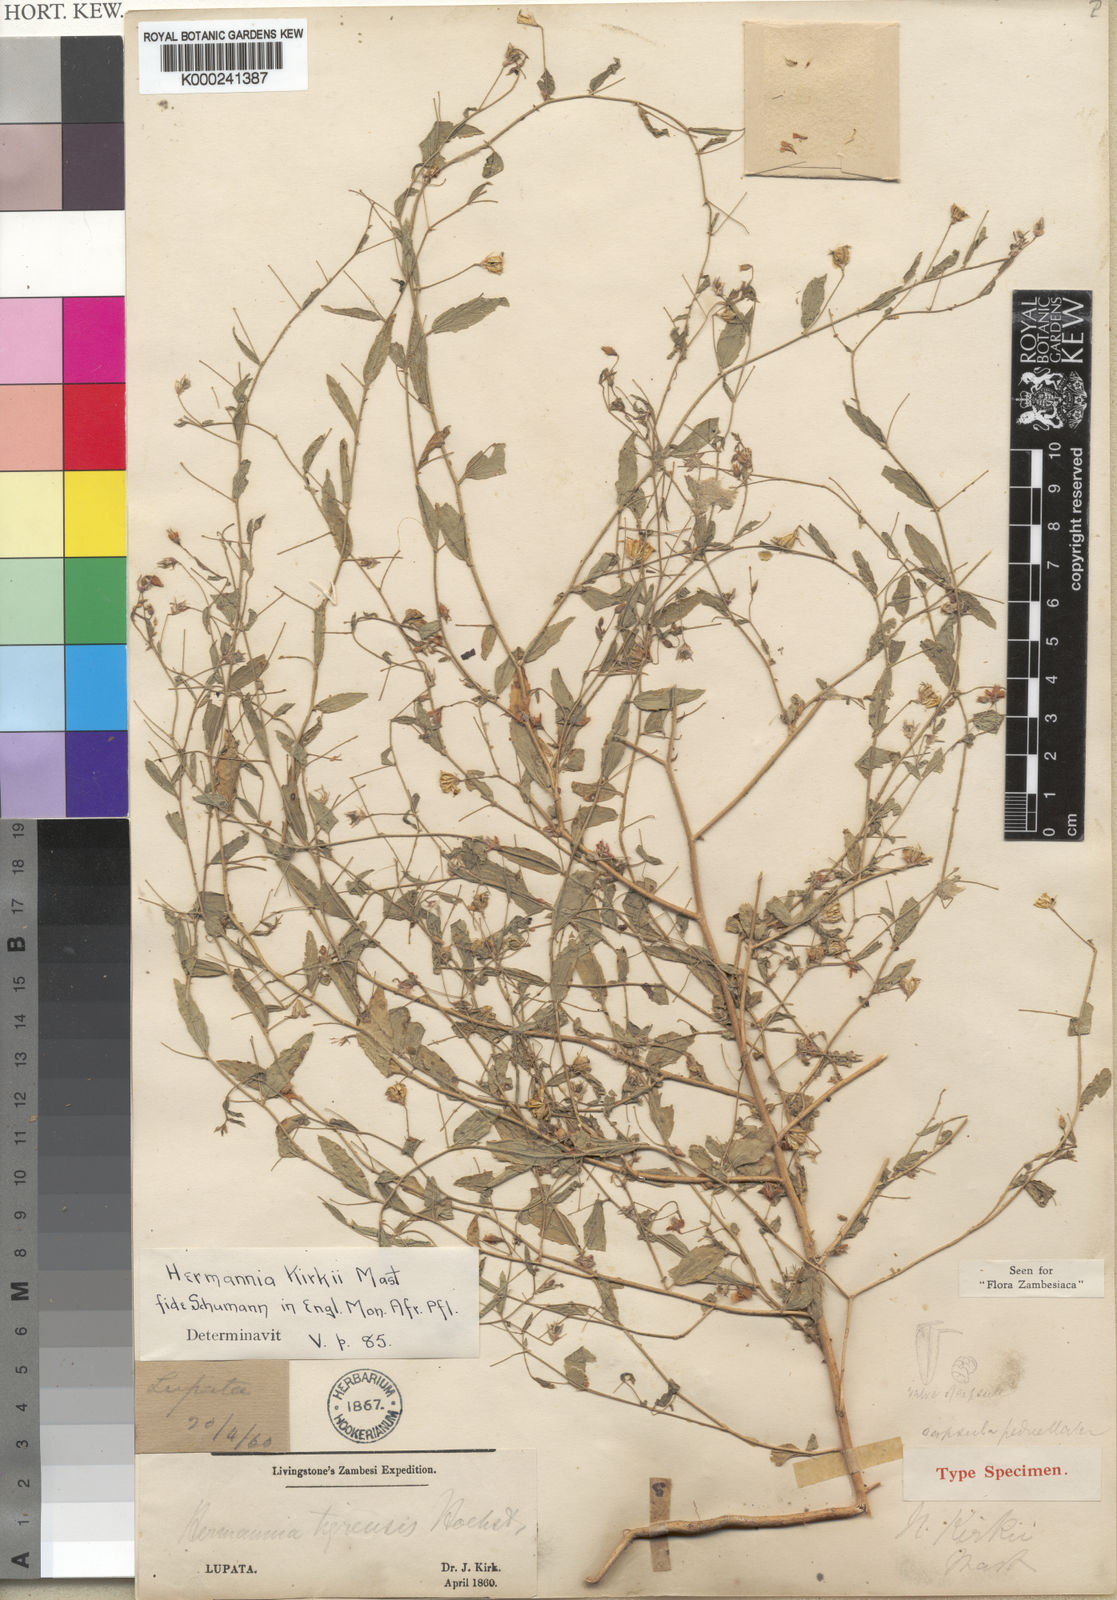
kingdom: Plantae
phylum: Tracheophyta
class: Magnoliopsida
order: Malvales
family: Malvaceae
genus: Hermannia
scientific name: Hermannia modesta
